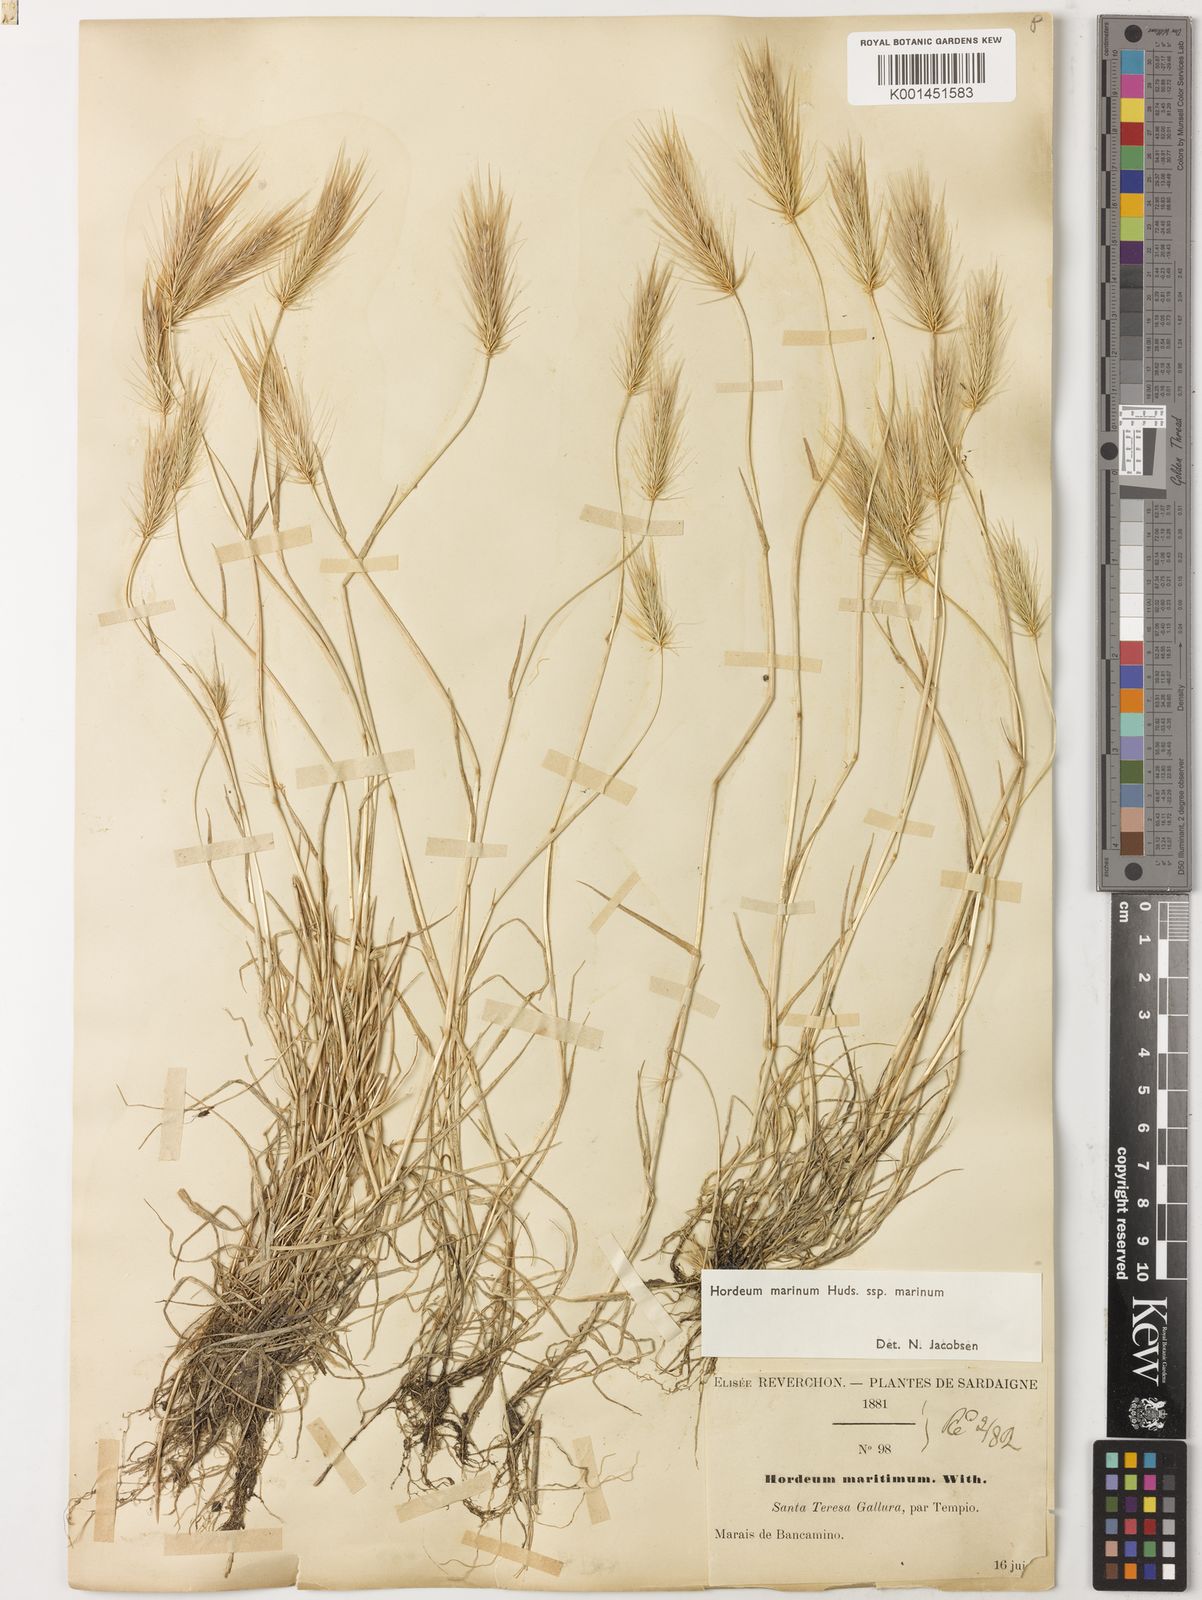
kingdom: Plantae
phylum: Tracheophyta
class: Liliopsida
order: Poales
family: Poaceae
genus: Hordeum
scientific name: Hordeum marinum
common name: Sea barley
